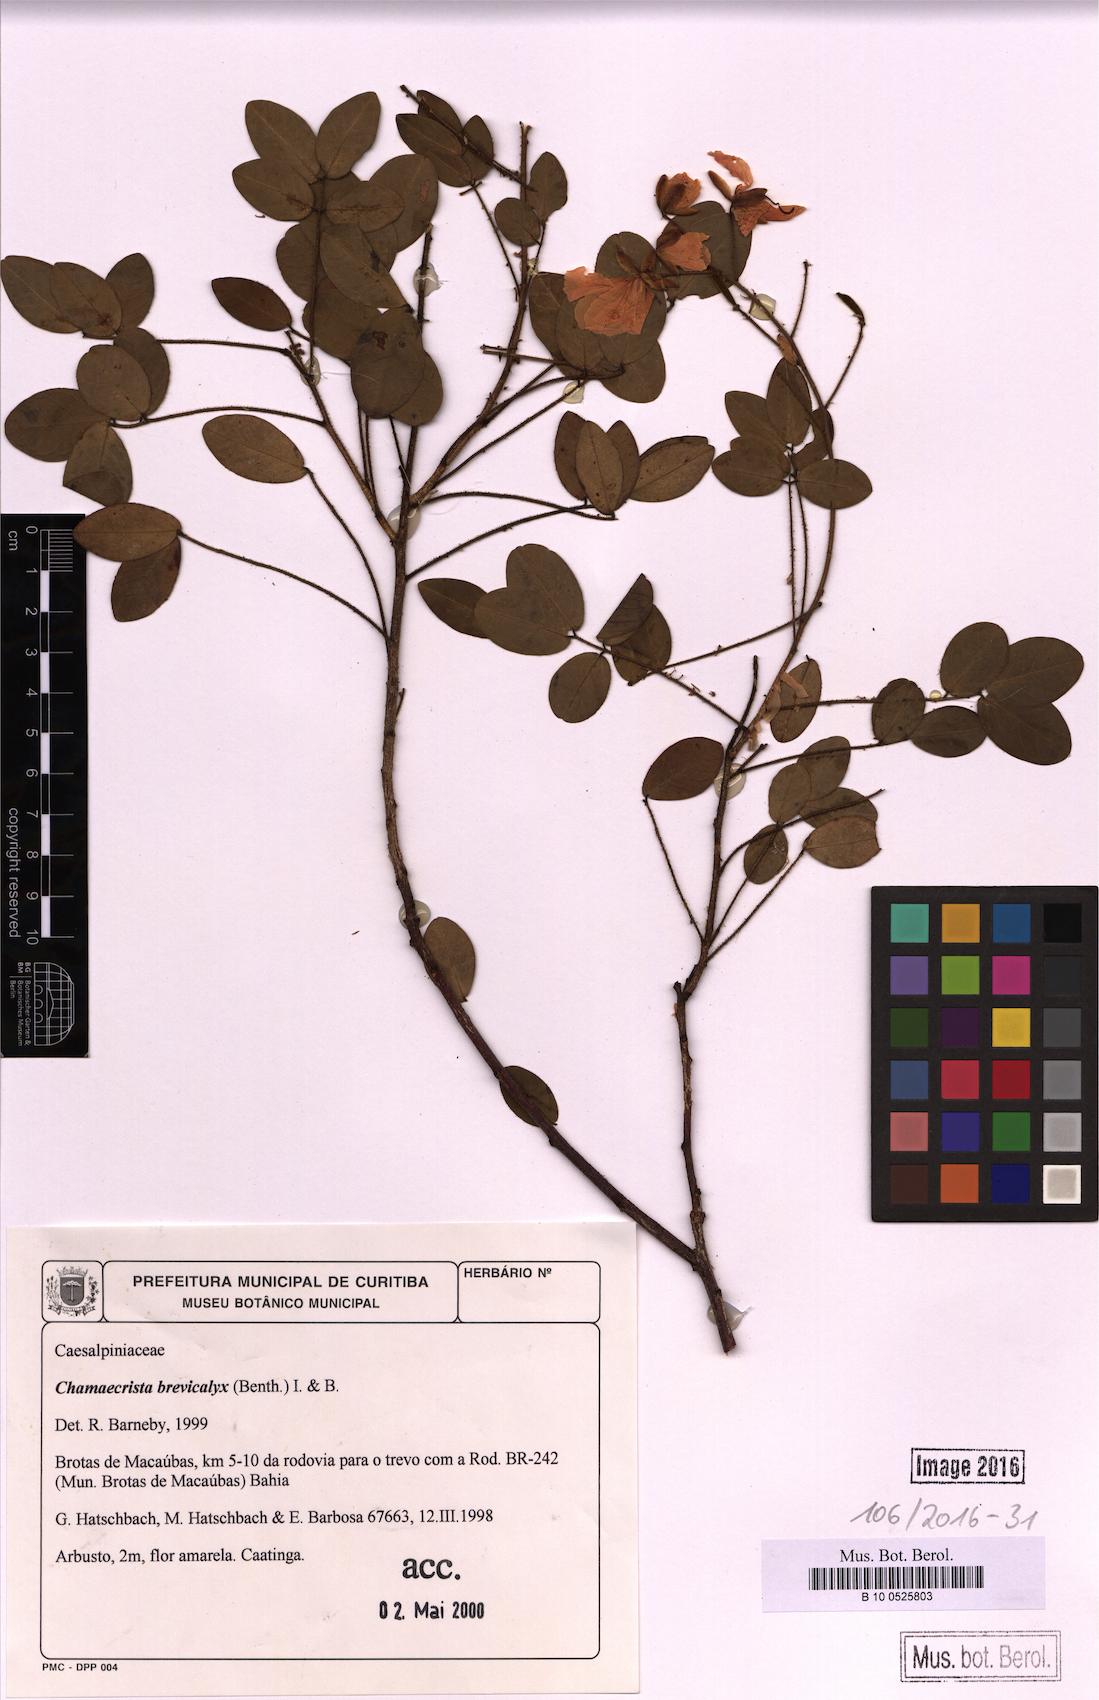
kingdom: Plantae
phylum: Tracheophyta
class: Magnoliopsida
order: Fabales
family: Fabaceae
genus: Chamaecrista
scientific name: Chamaecrista brevicalyx
